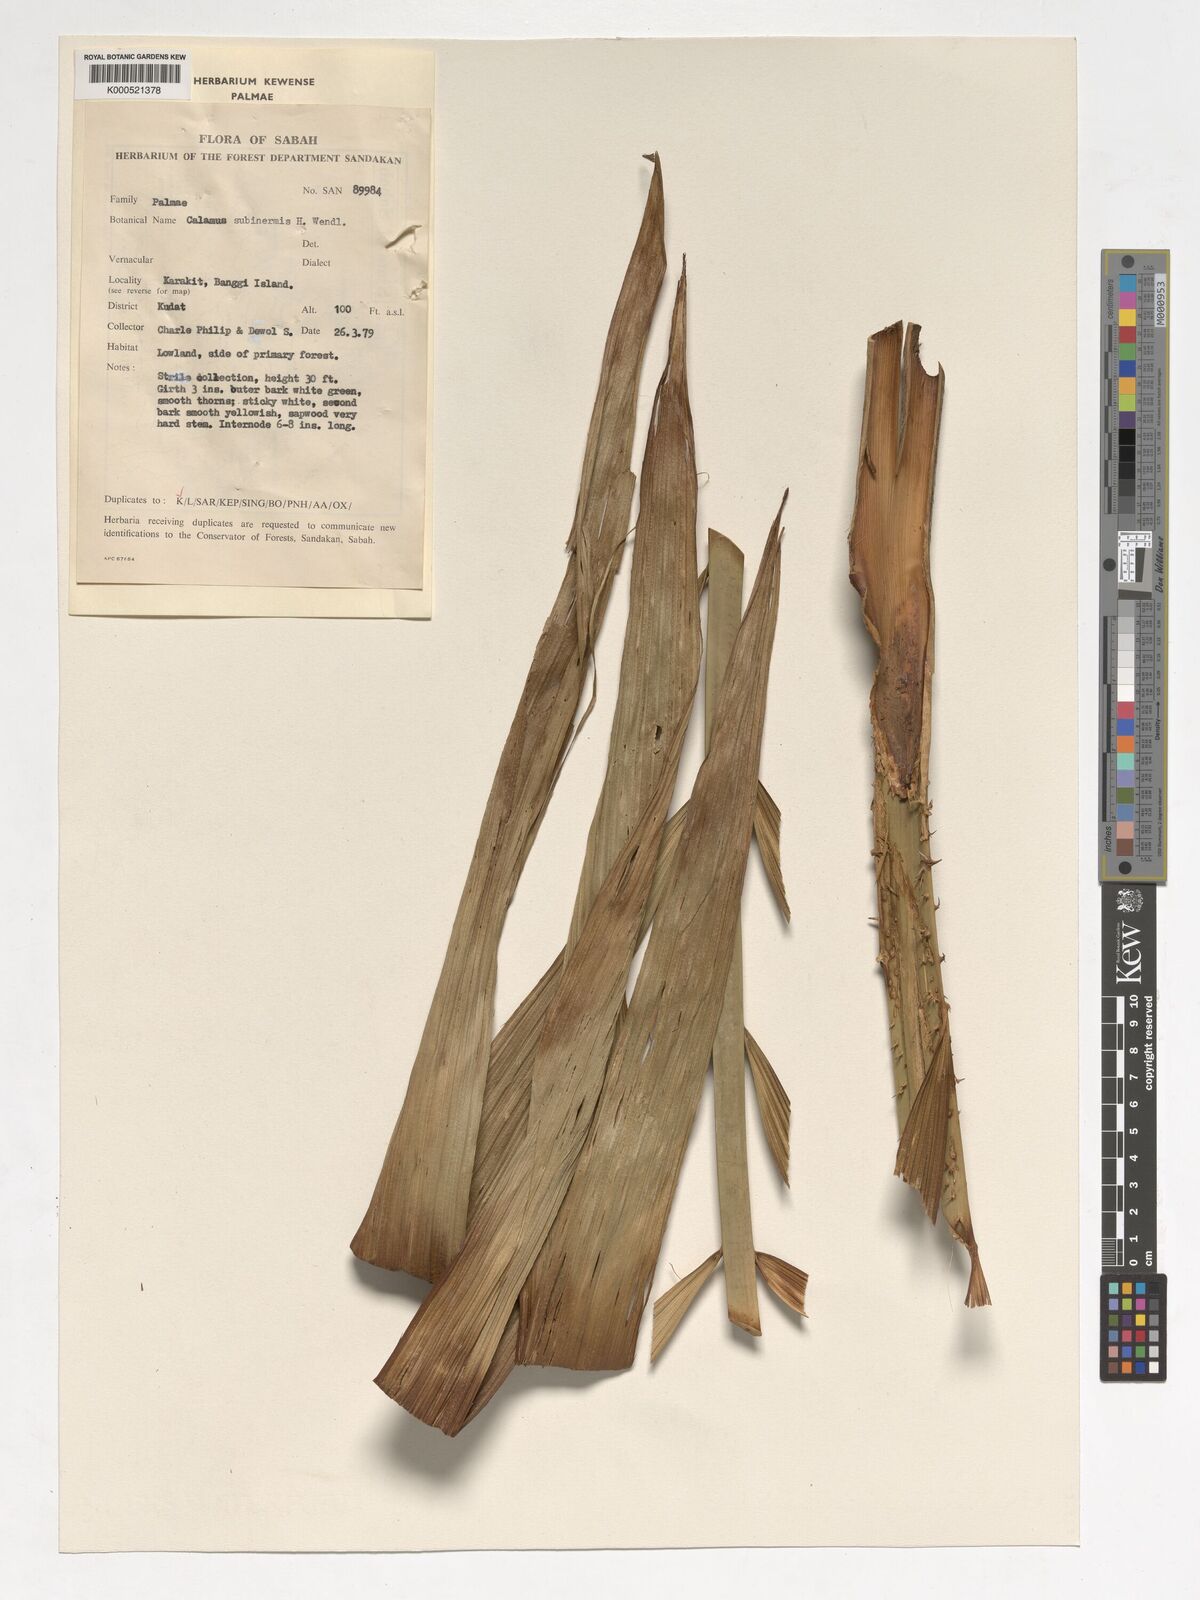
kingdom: Plantae
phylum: Tracheophyta
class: Liliopsida
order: Arecales
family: Arecaceae
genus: Calamus
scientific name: Calamus moseleyanus
